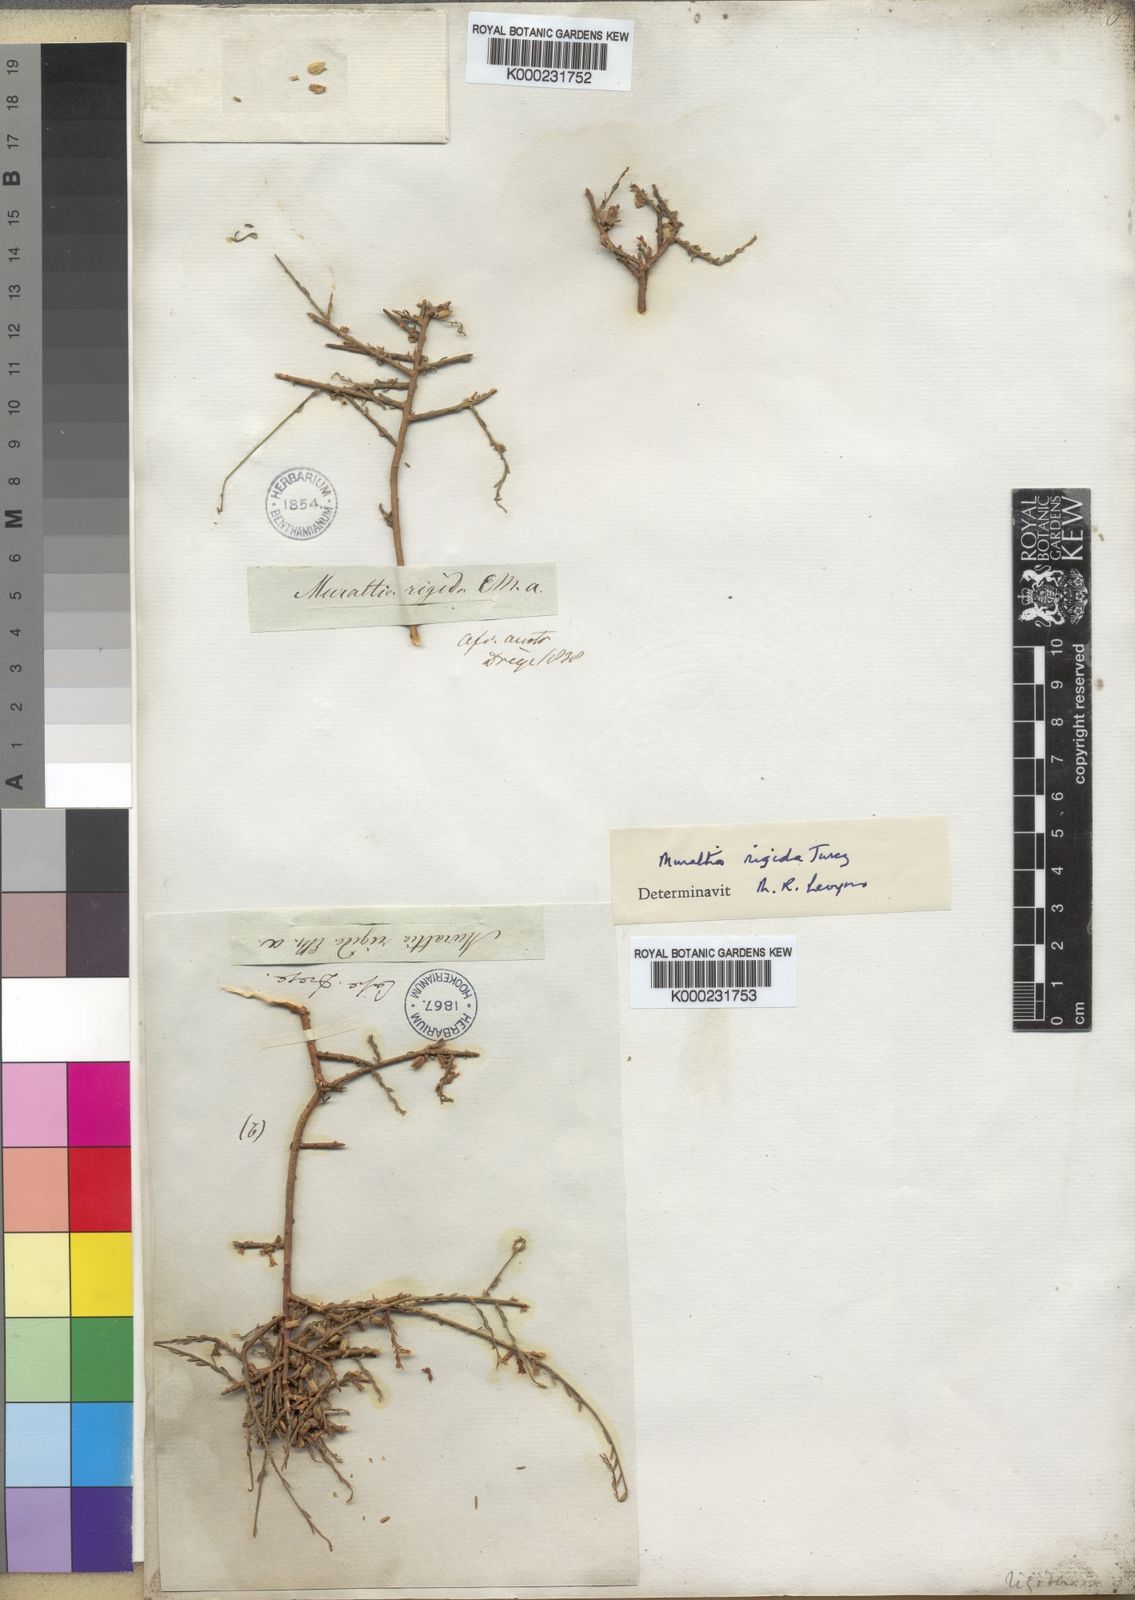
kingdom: Plantae
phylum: Tracheophyta
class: Magnoliopsida
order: Fabales
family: Polygalaceae
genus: Muraltia
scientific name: Muraltia rigida
